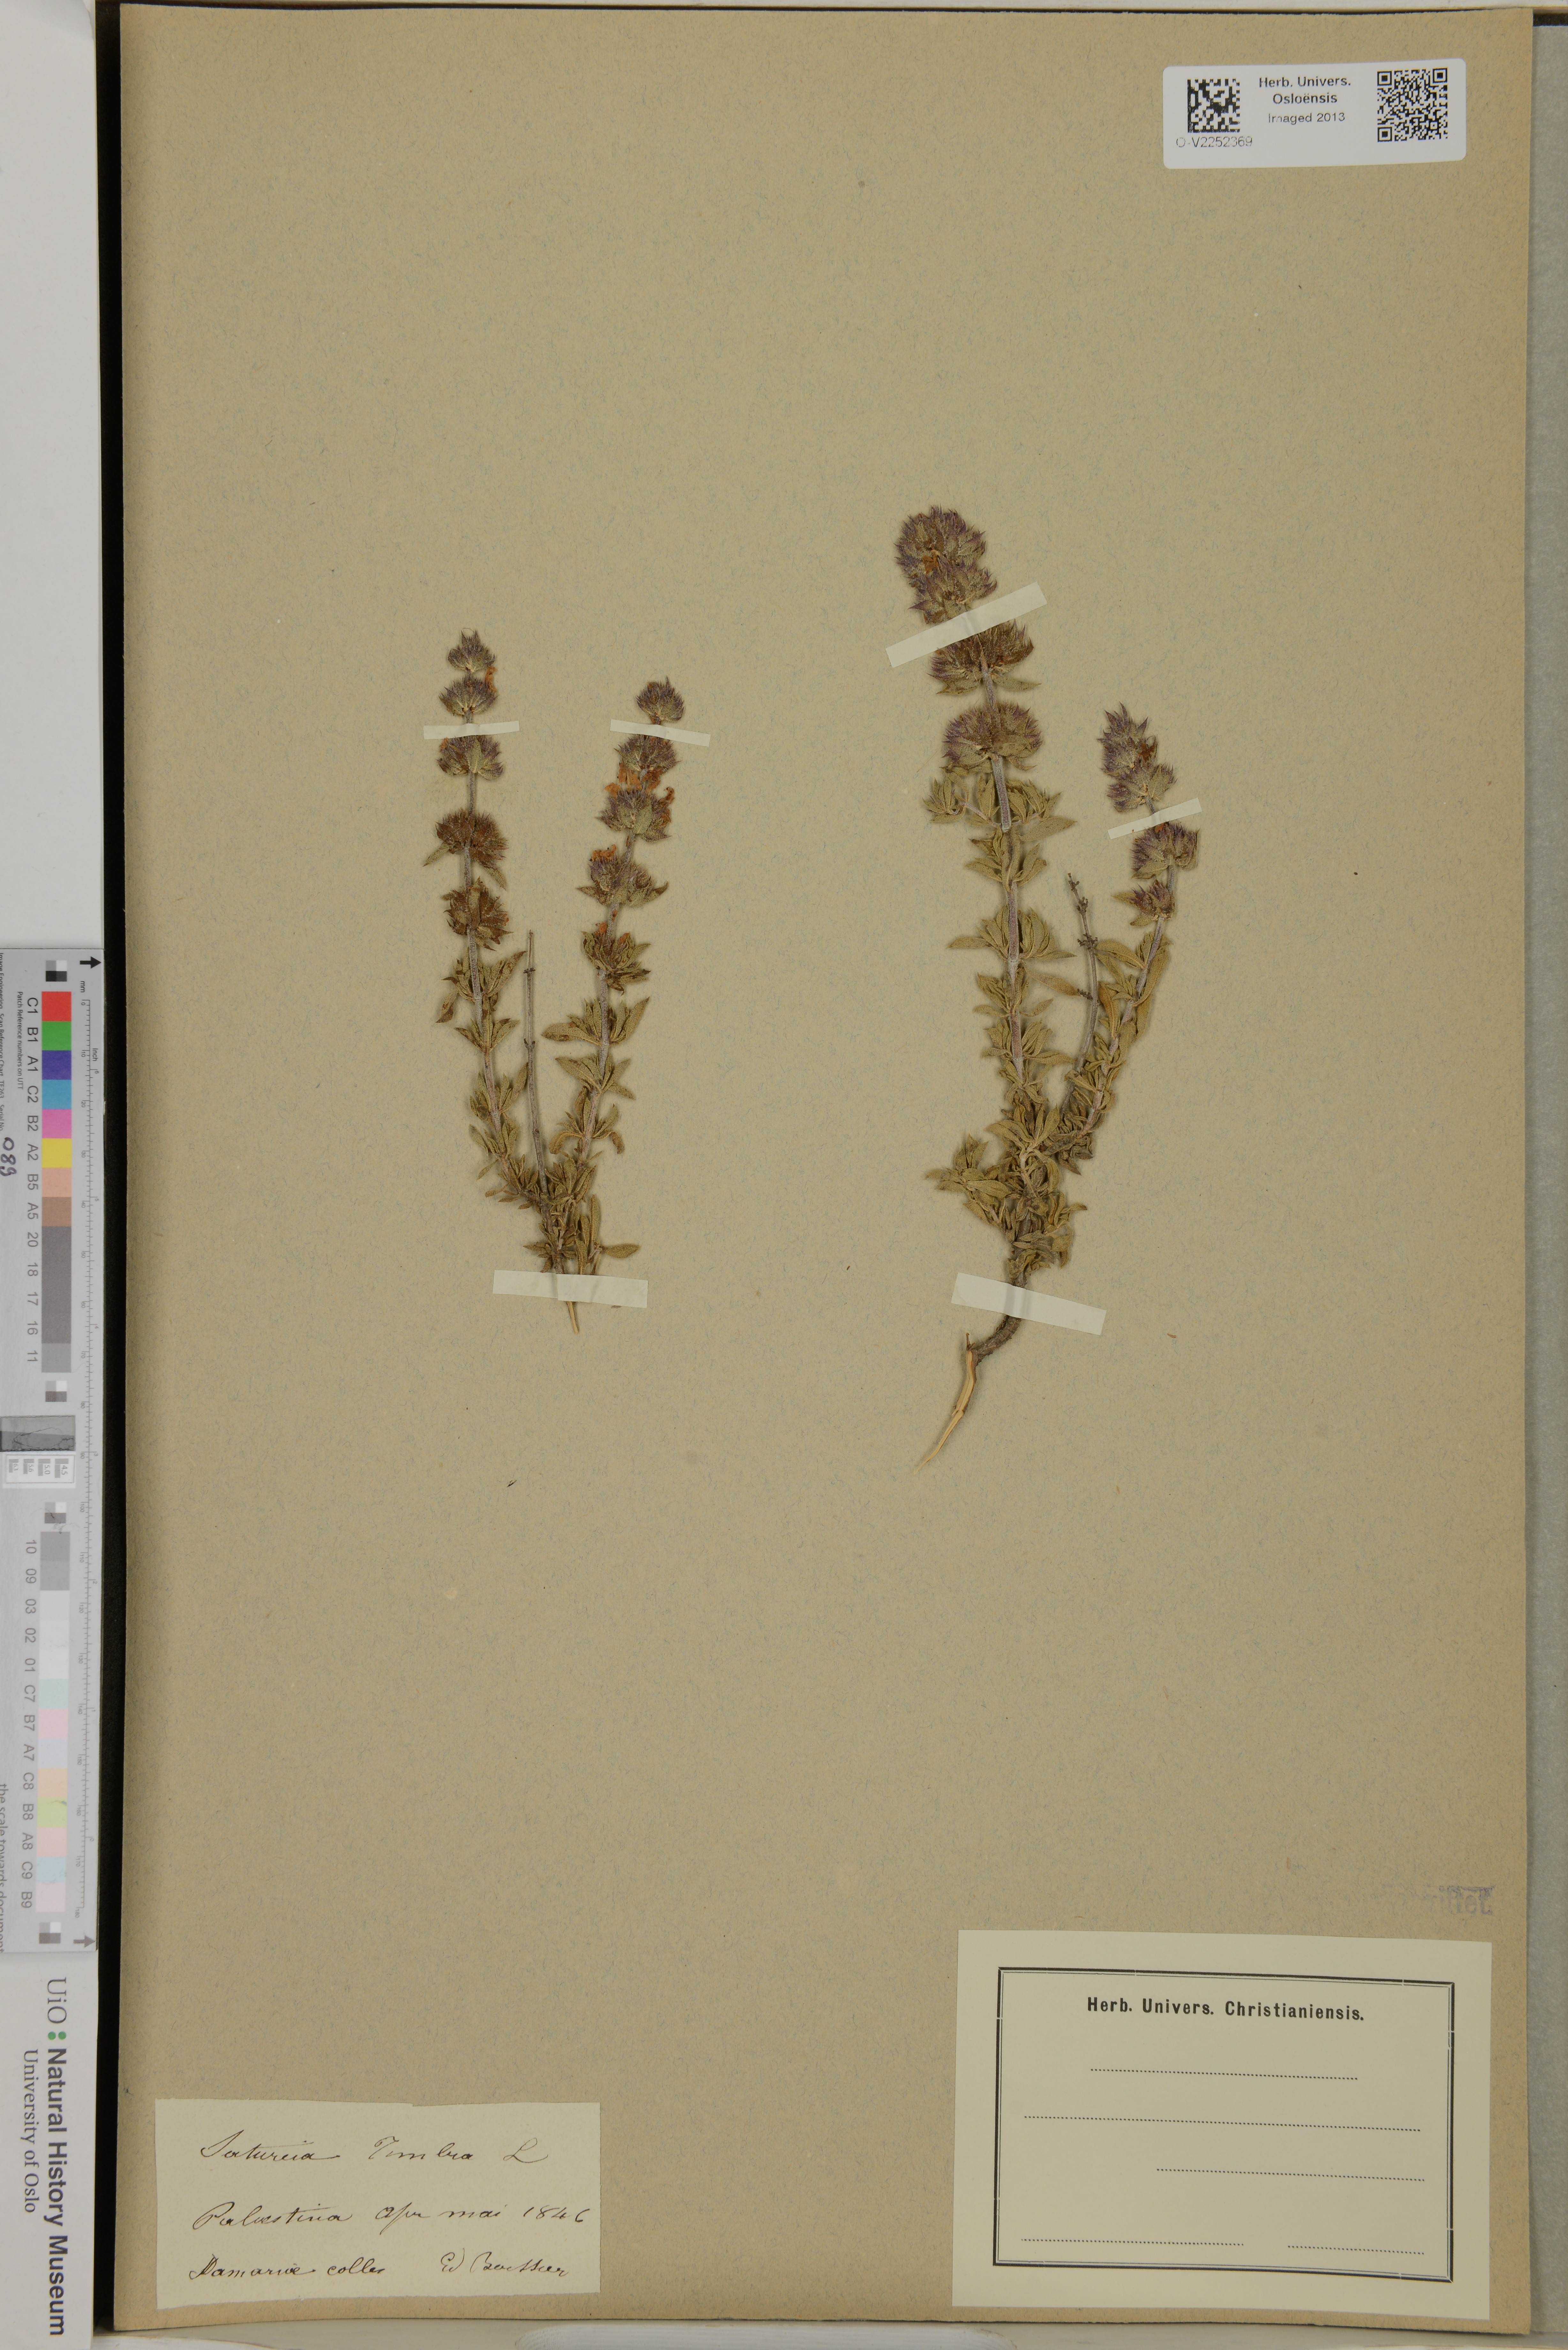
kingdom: Plantae
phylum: Tracheophyta
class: Magnoliopsida
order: Lamiales
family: Lamiaceae
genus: Satureja
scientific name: Satureja thymbra
